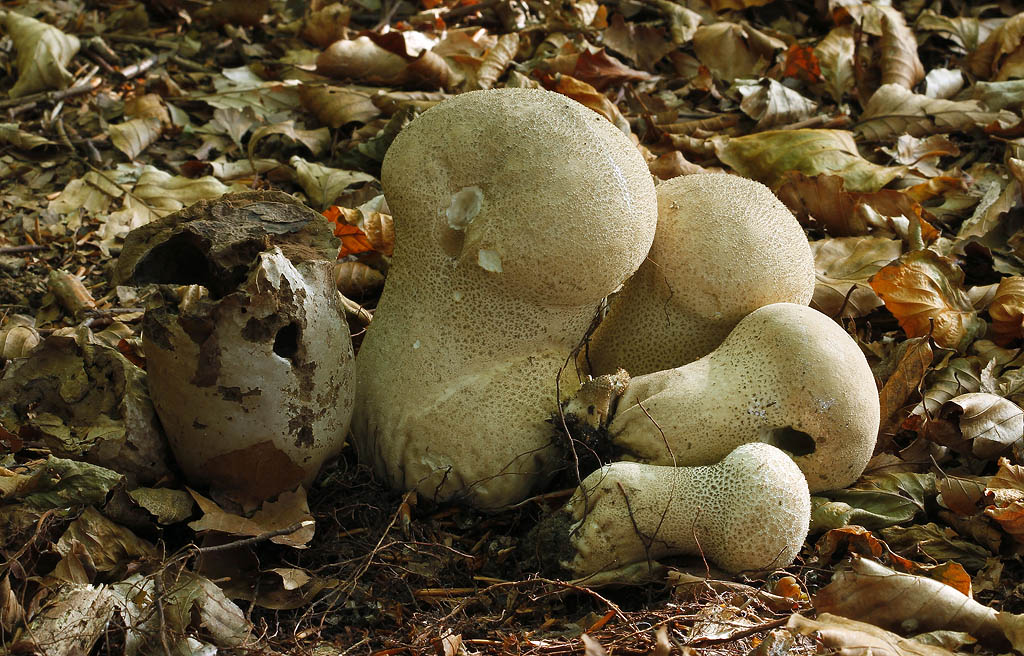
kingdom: Fungi
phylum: Basidiomycota
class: Agaricomycetes
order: Agaricales
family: Lycoperdaceae
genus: Lycoperdon
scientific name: Lycoperdon excipuliforme
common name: højstokket støvbold
